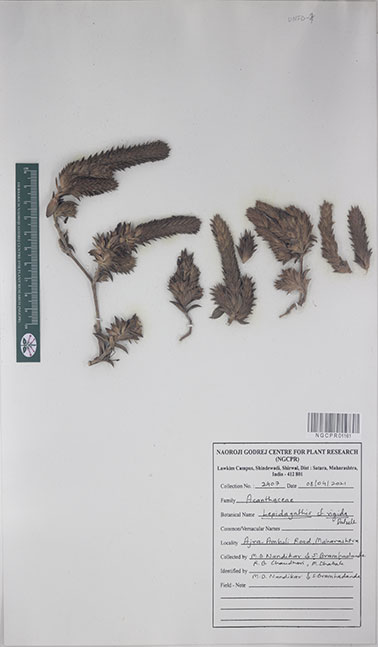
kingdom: Plantae
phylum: Tracheophyta
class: Magnoliopsida
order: Lamiales
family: Acanthaceae
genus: Lepidagathis
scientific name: Lepidagathis rigida
